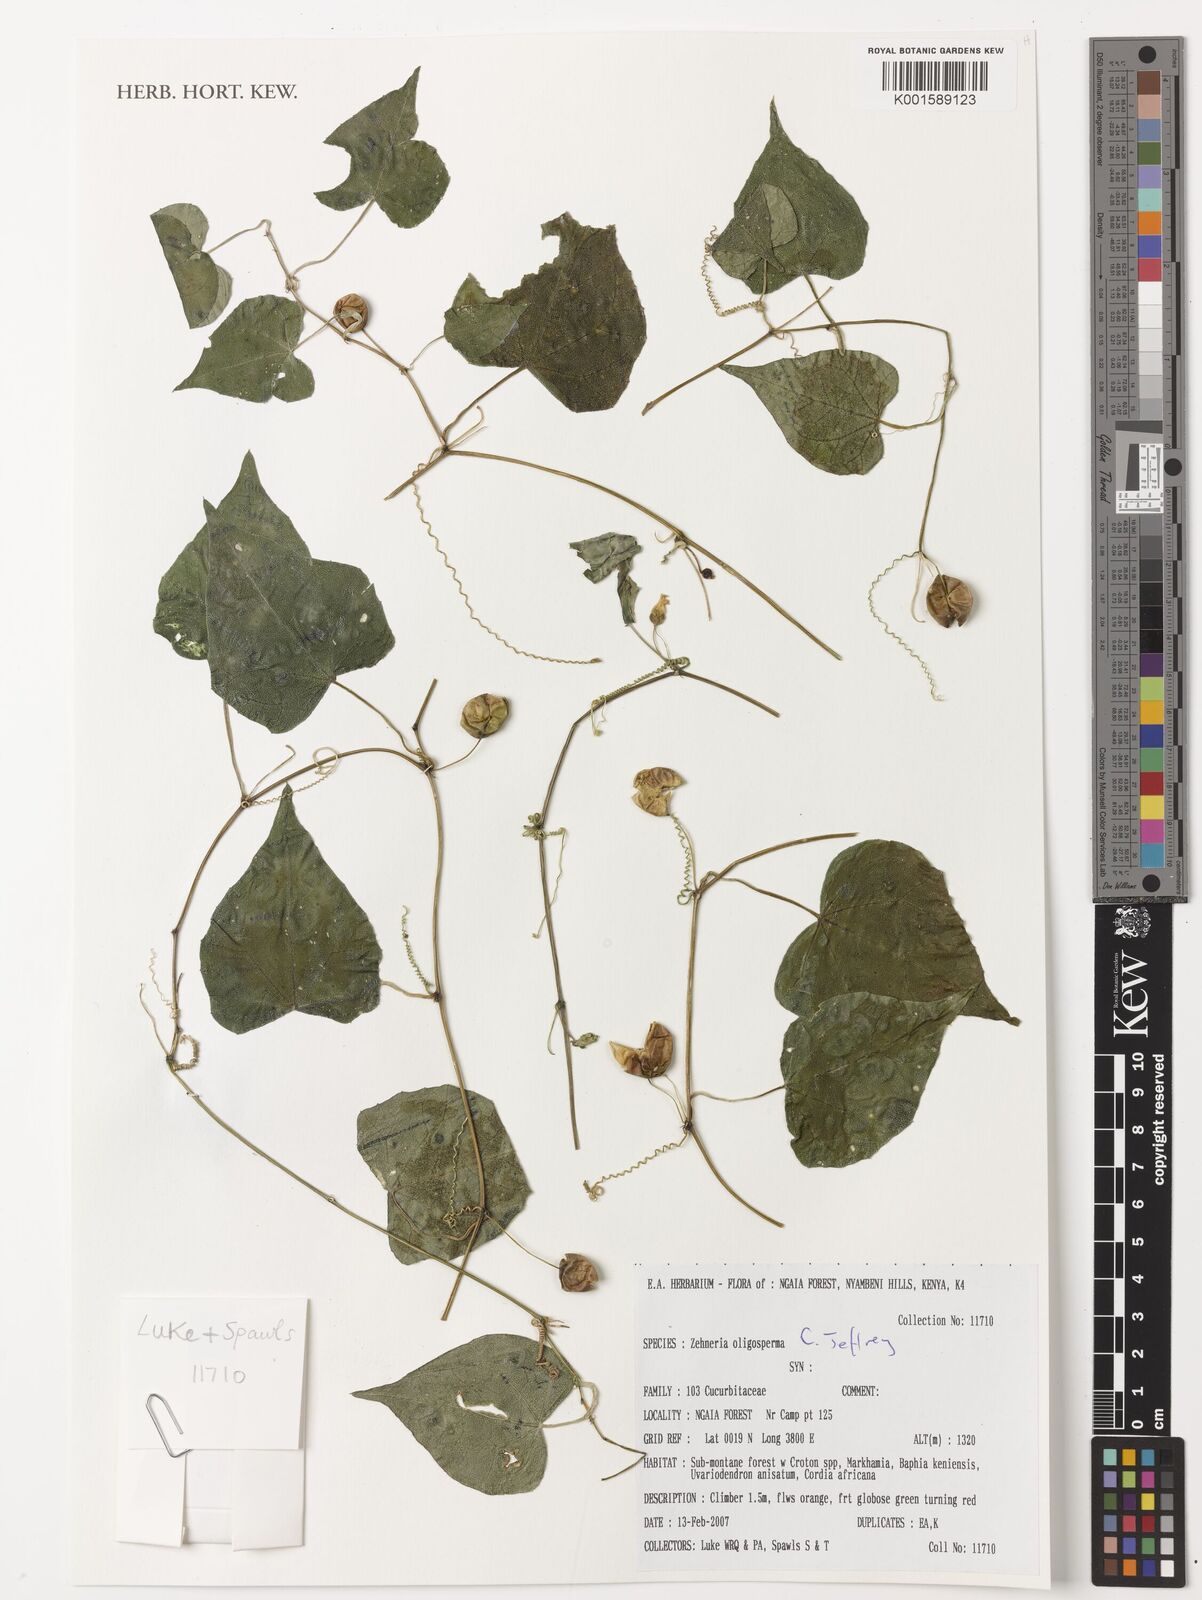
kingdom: Plantae
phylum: Tracheophyta
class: Magnoliopsida
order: Cucurbitales
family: Cucurbitaceae
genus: Zehneria
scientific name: Zehneria oligosperma
